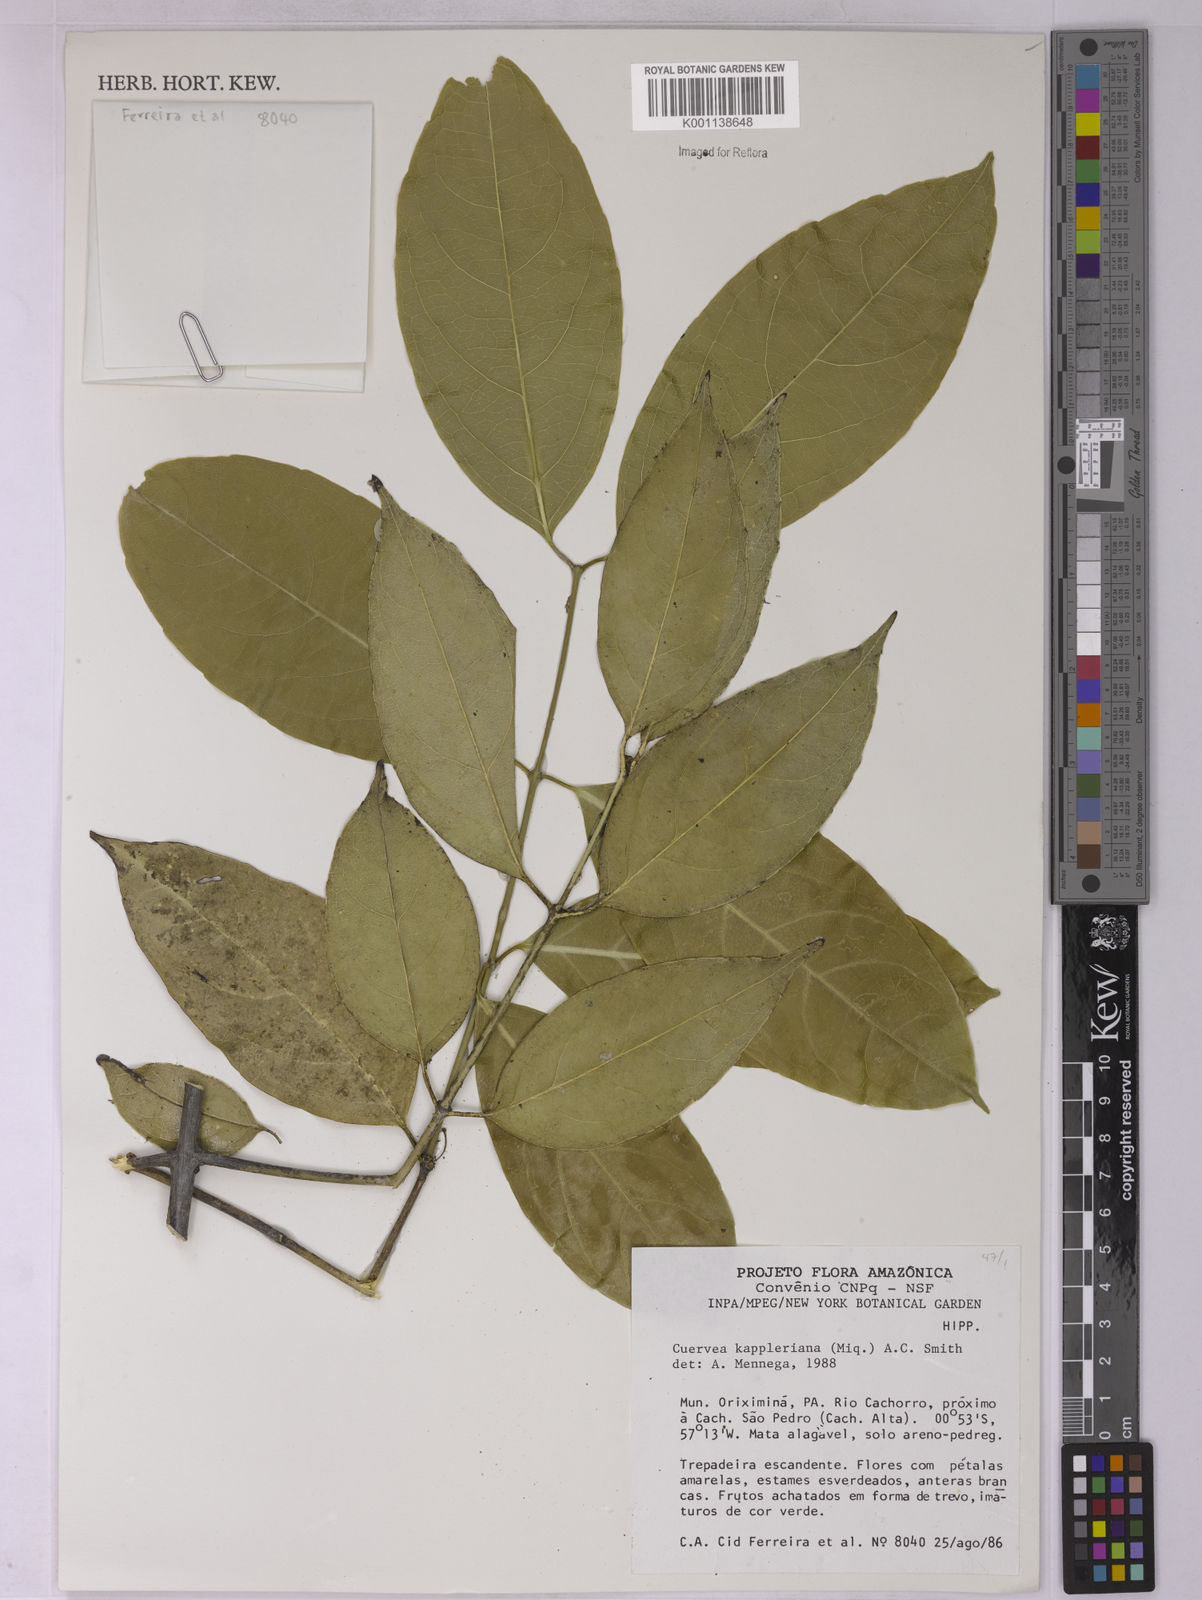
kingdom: Plantae
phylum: Tracheophyta
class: Magnoliopsida
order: Celastrales
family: Celastraceae
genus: Cuervea
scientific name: Cuervea kappleriana
